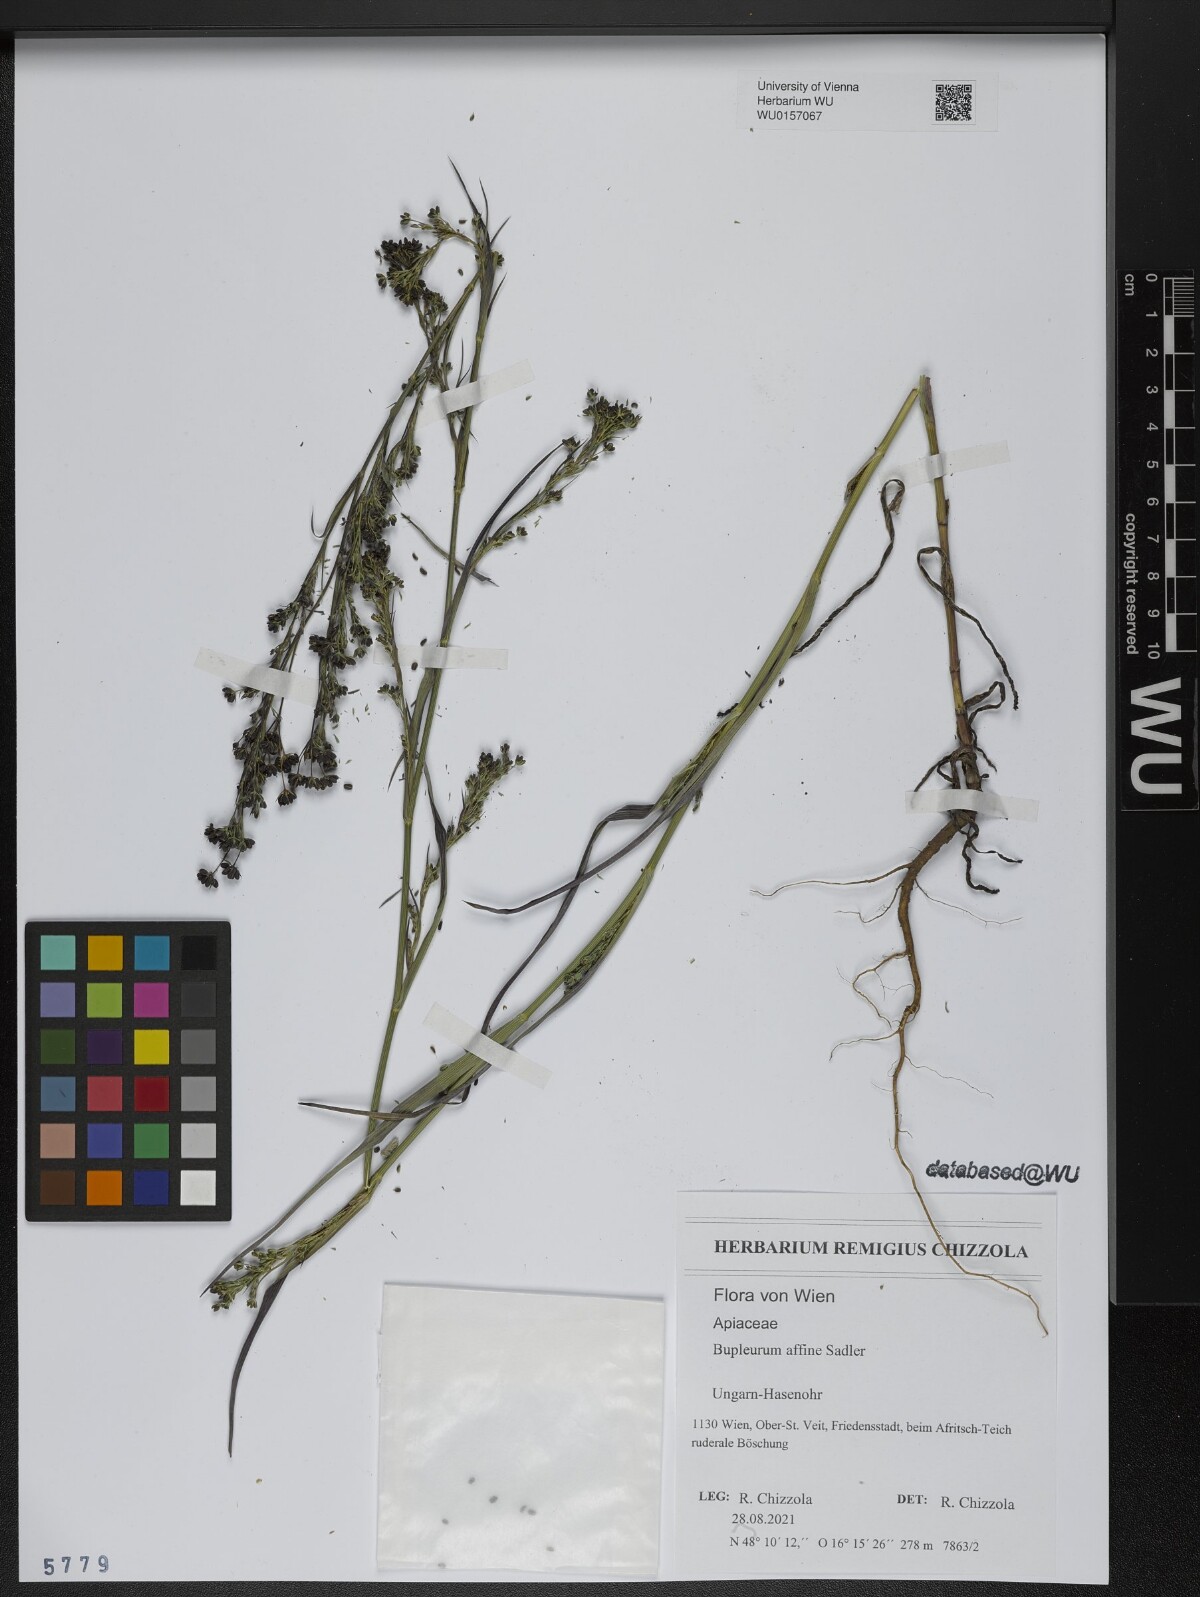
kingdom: Plantae
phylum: Tracheophyta
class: Magnoliopsida
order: Apiales
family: Apiaceae
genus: Bupleurum
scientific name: Bupleurum affine
